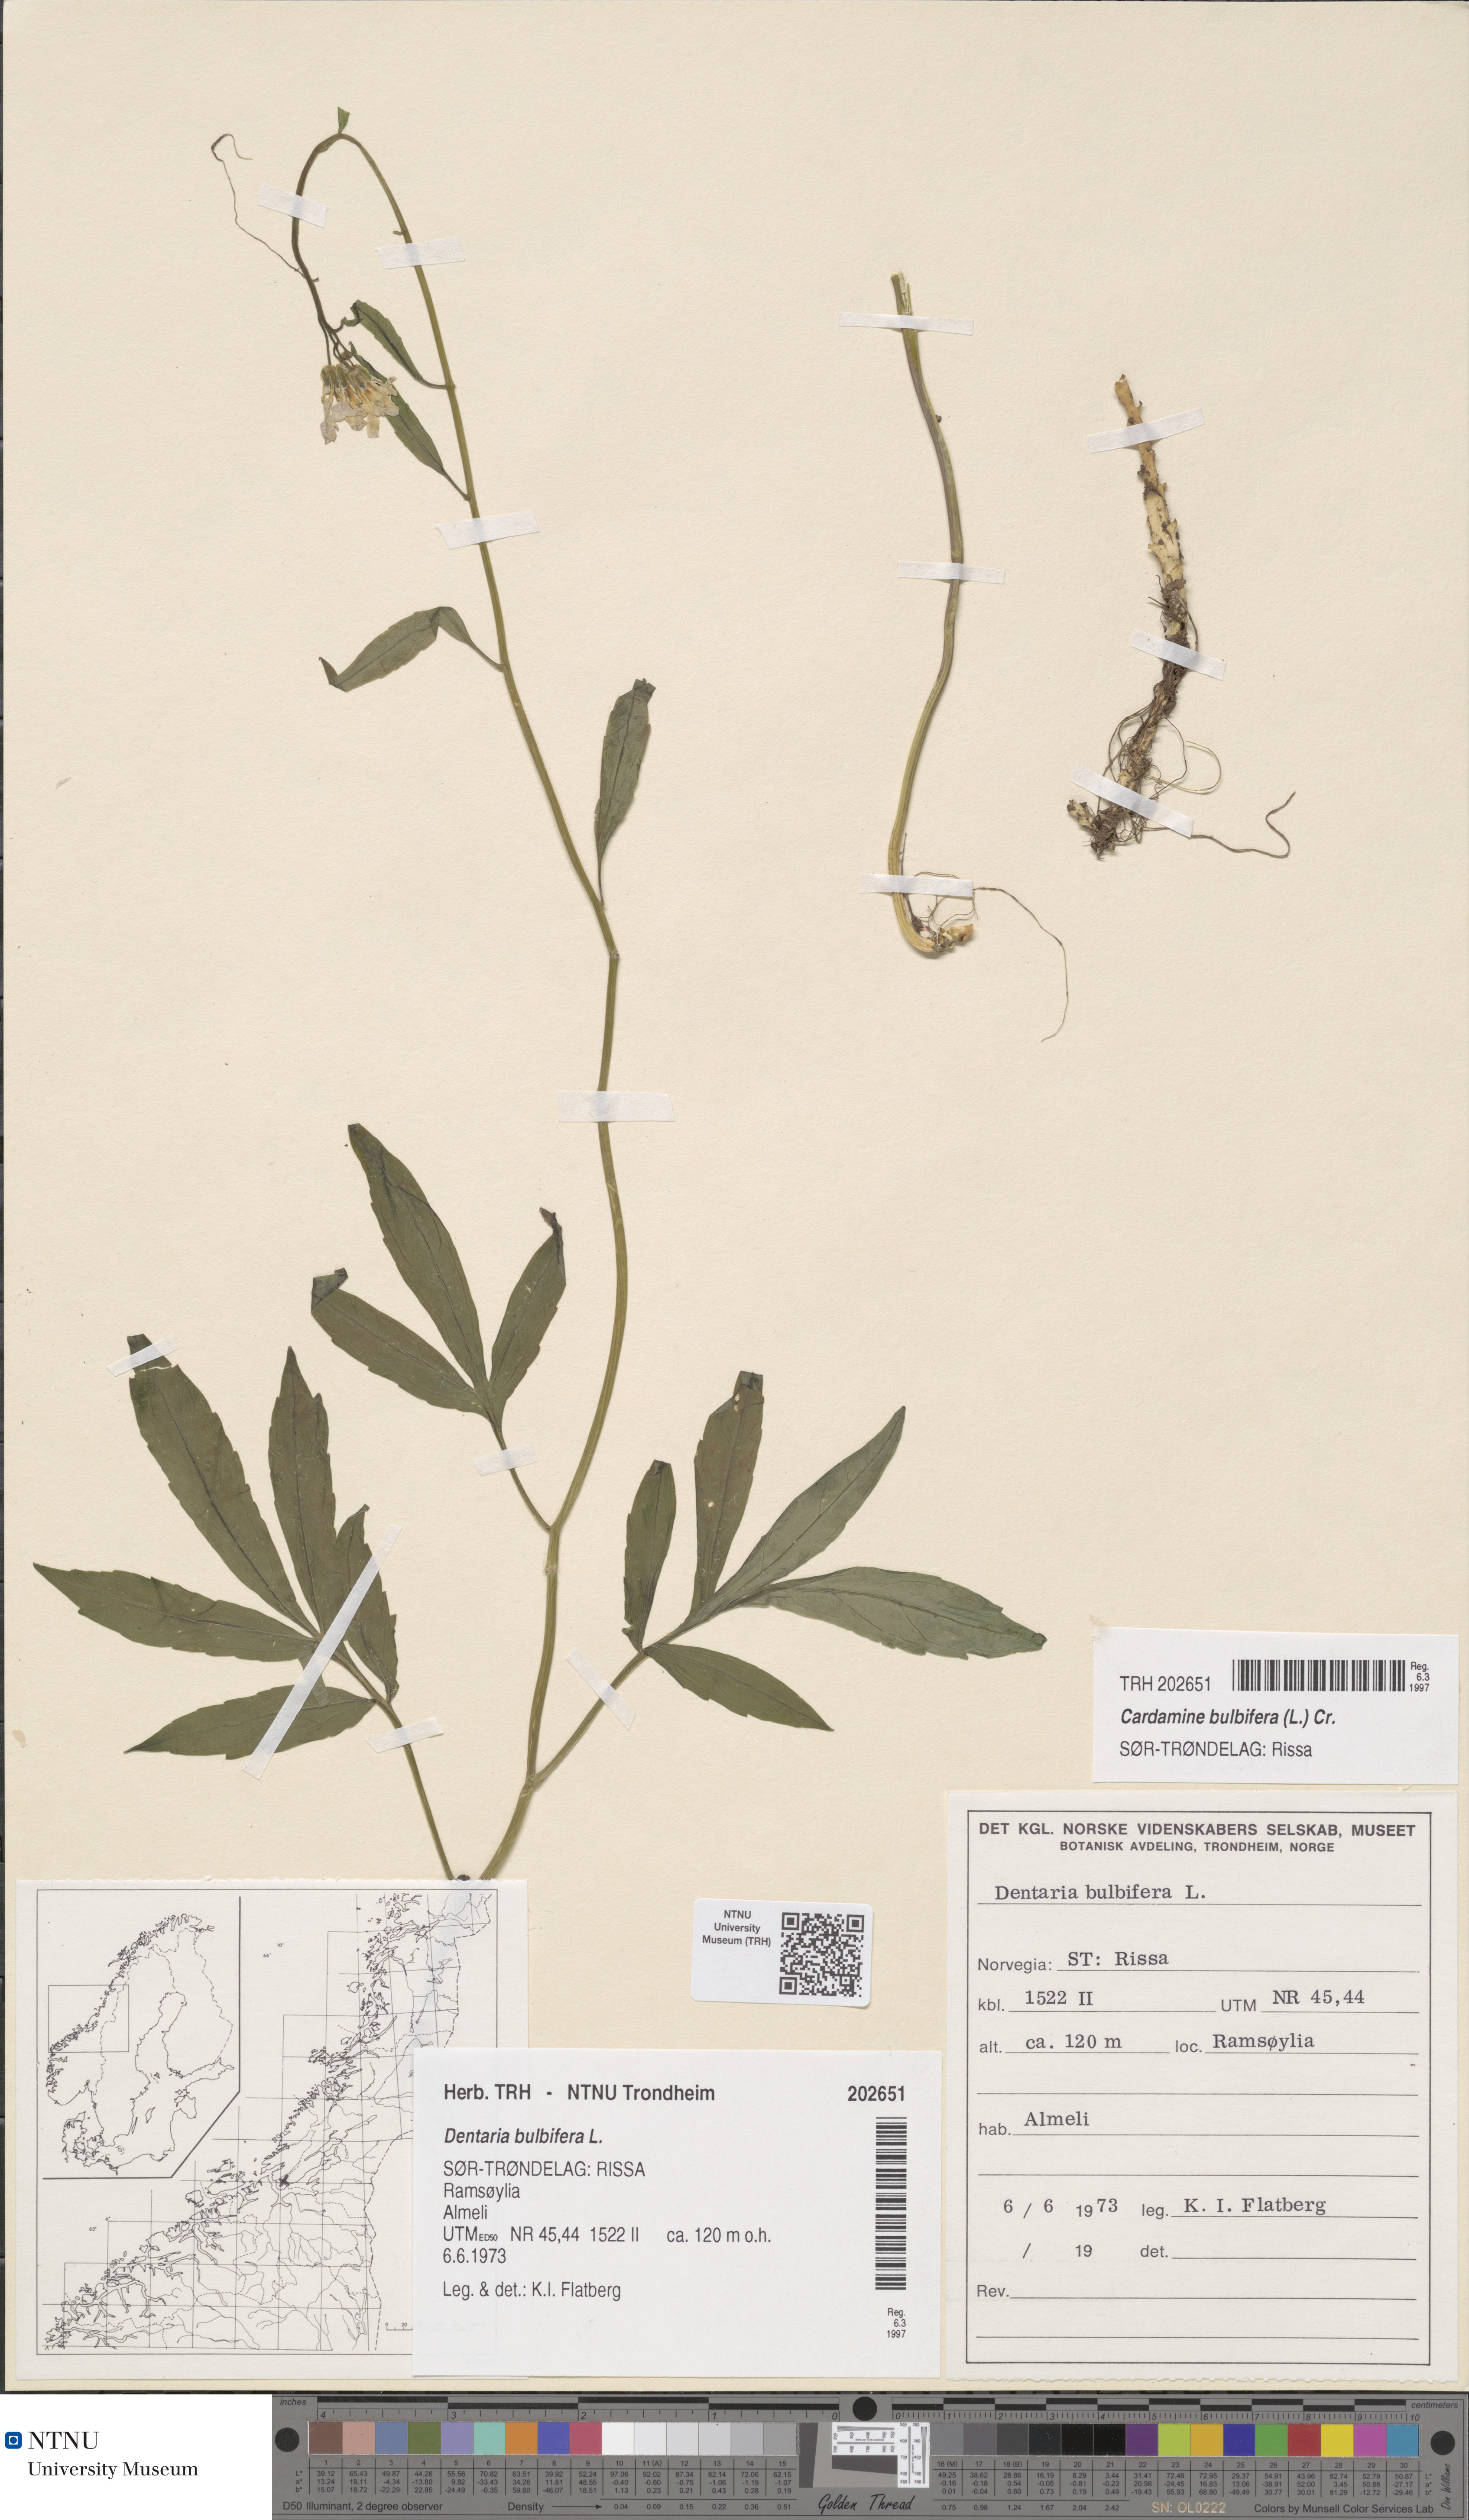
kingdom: Plantae
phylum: Tracheophyta
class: Magnoliopsida
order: Brassicales
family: Brassicaceae
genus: Cardamine
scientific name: Cardamine bulbifera
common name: Coralroot bittercress
